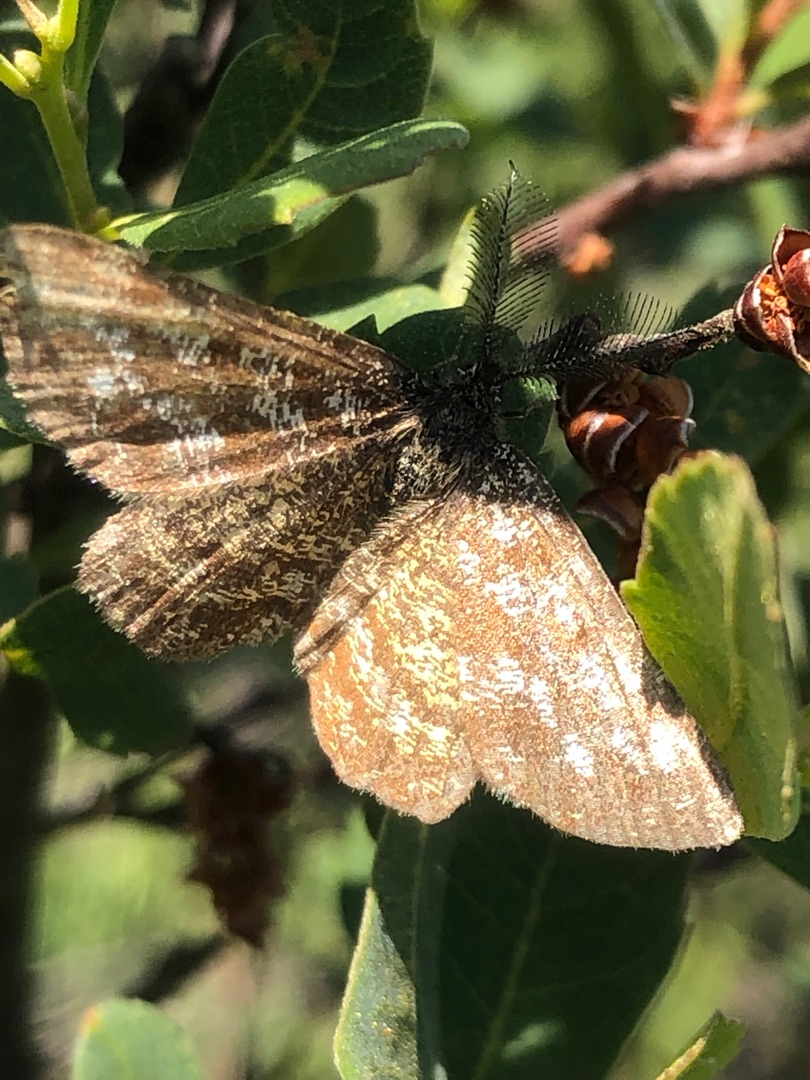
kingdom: Animalia
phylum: Arthropoda
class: Insecta
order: Lepidoptera
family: Geometridae
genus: Ematurga
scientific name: Ematurga atomaria
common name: Lyngmåler
